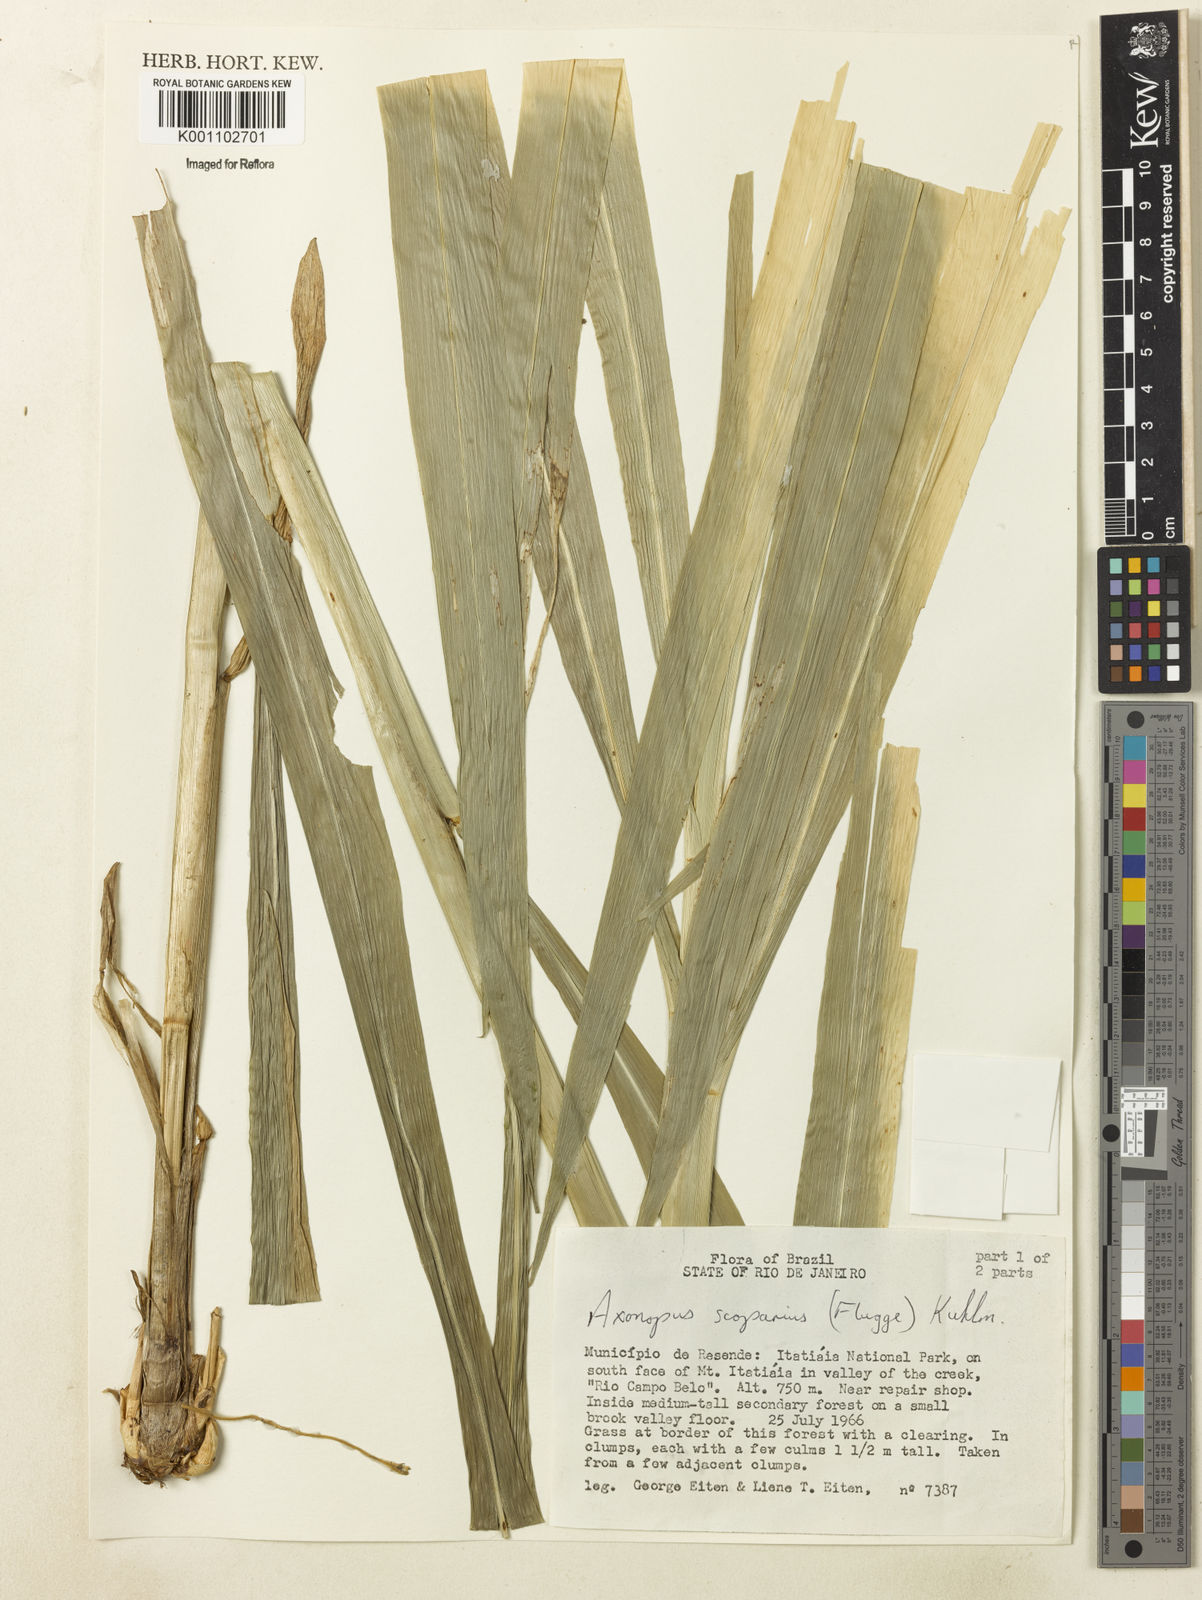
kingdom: Plantae
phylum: Tracheophyta
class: Liliopsida
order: Poales
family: Poaceae
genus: Axonopus
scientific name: Axonopus
